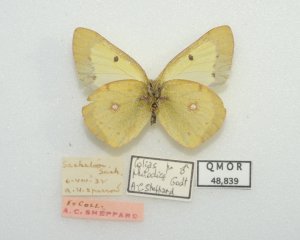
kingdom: Animalia
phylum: Arthropoda
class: Insecta
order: Lepidoptera
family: Pieridae
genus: Colias
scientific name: Colias philodice
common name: Clouded Sulphur
